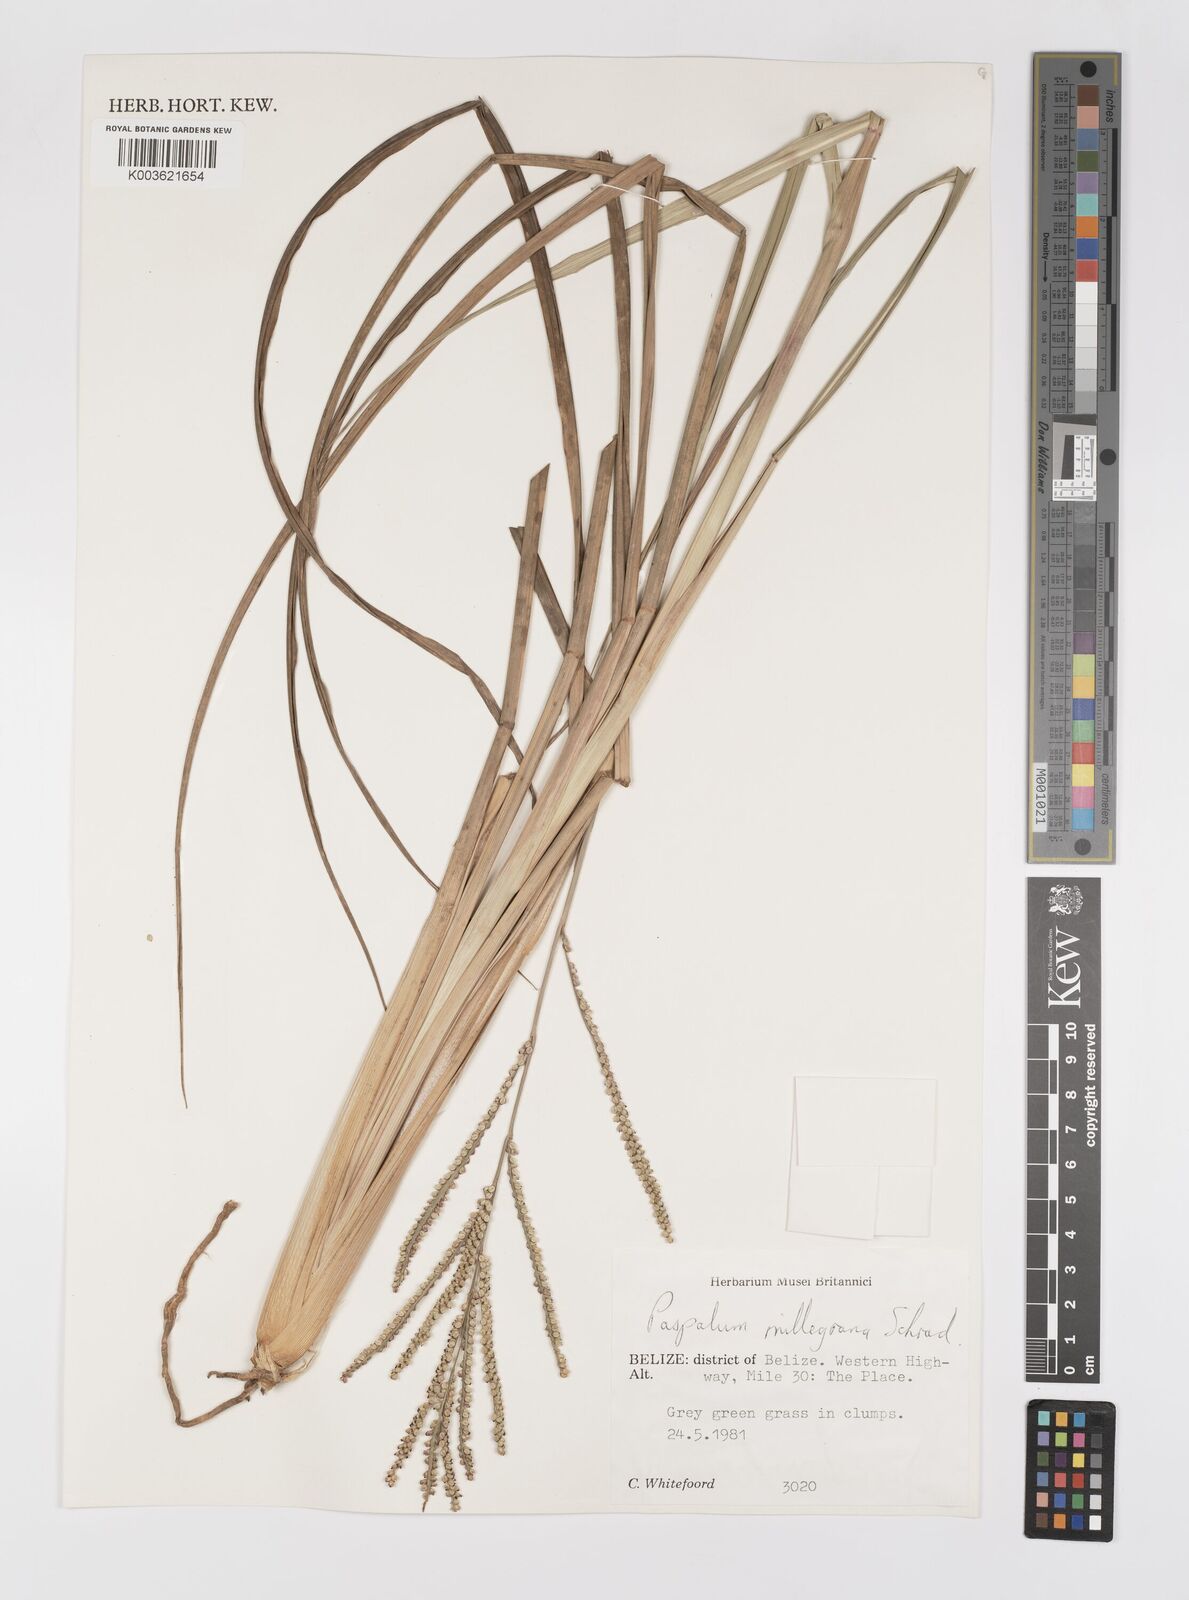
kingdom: Plantae
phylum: Tracheophyta
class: Liliopsida
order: Poales
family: Poaceae
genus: Paspalum
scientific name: Paspalum millegranum
